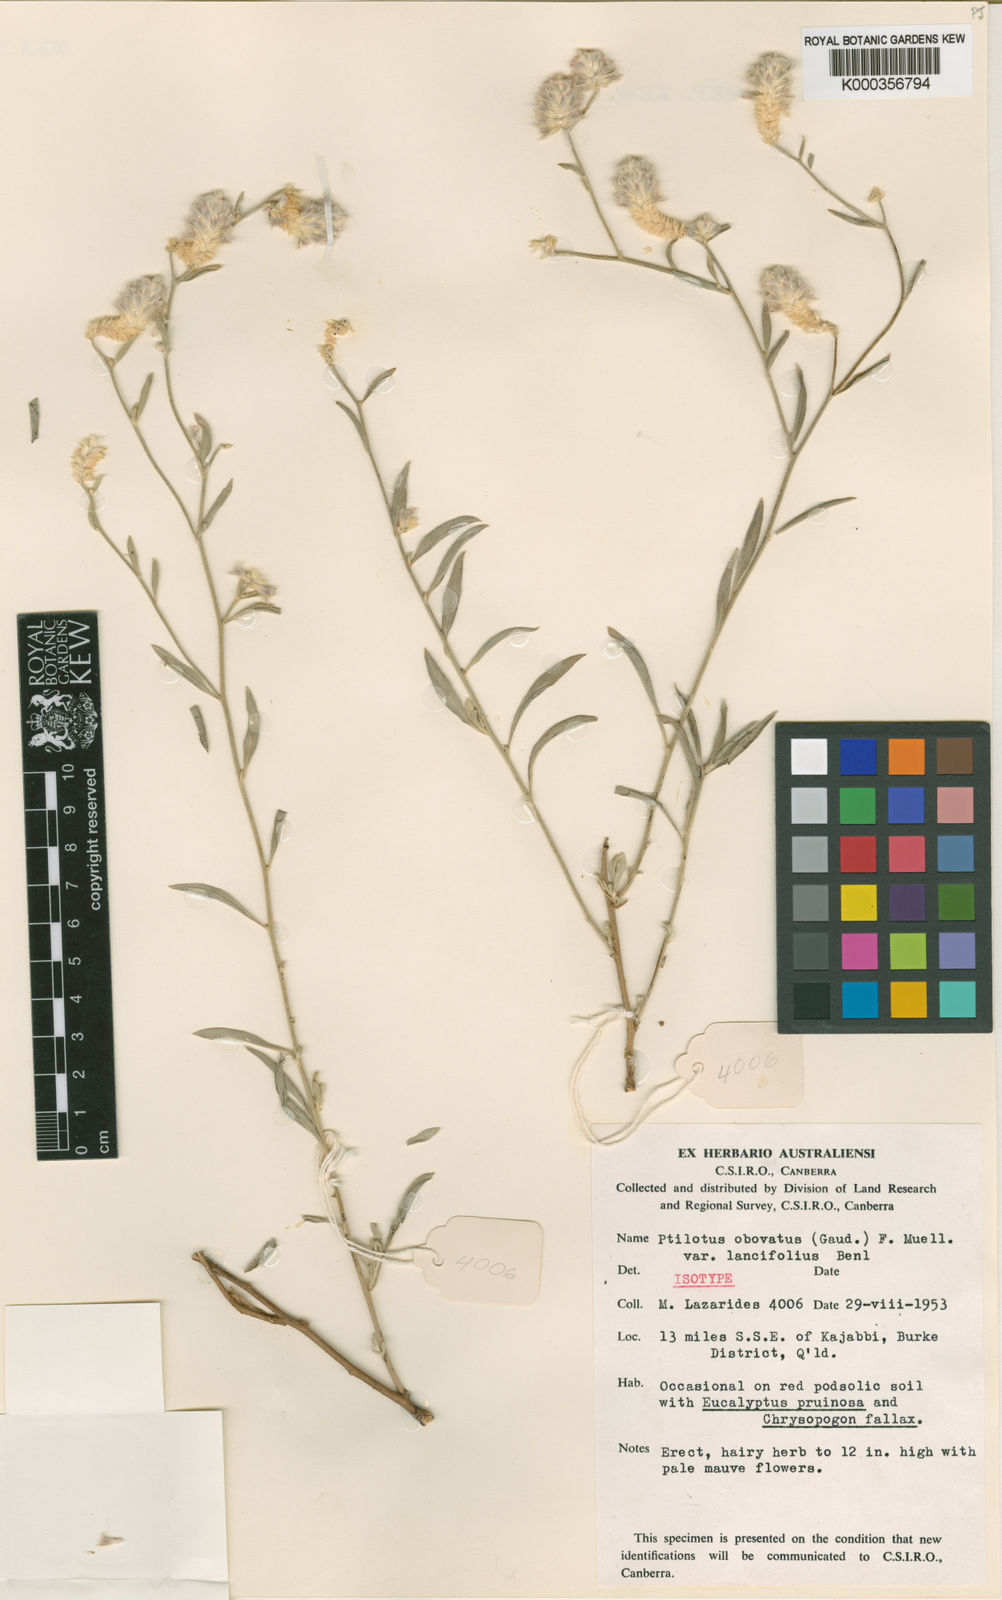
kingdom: Plantae
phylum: Tracheophyta
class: Magnoliopsida
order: Caryophyllales
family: Amaranthaceae
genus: Ptilotus
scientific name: Ptilotus obovatus
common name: Cottonbush
